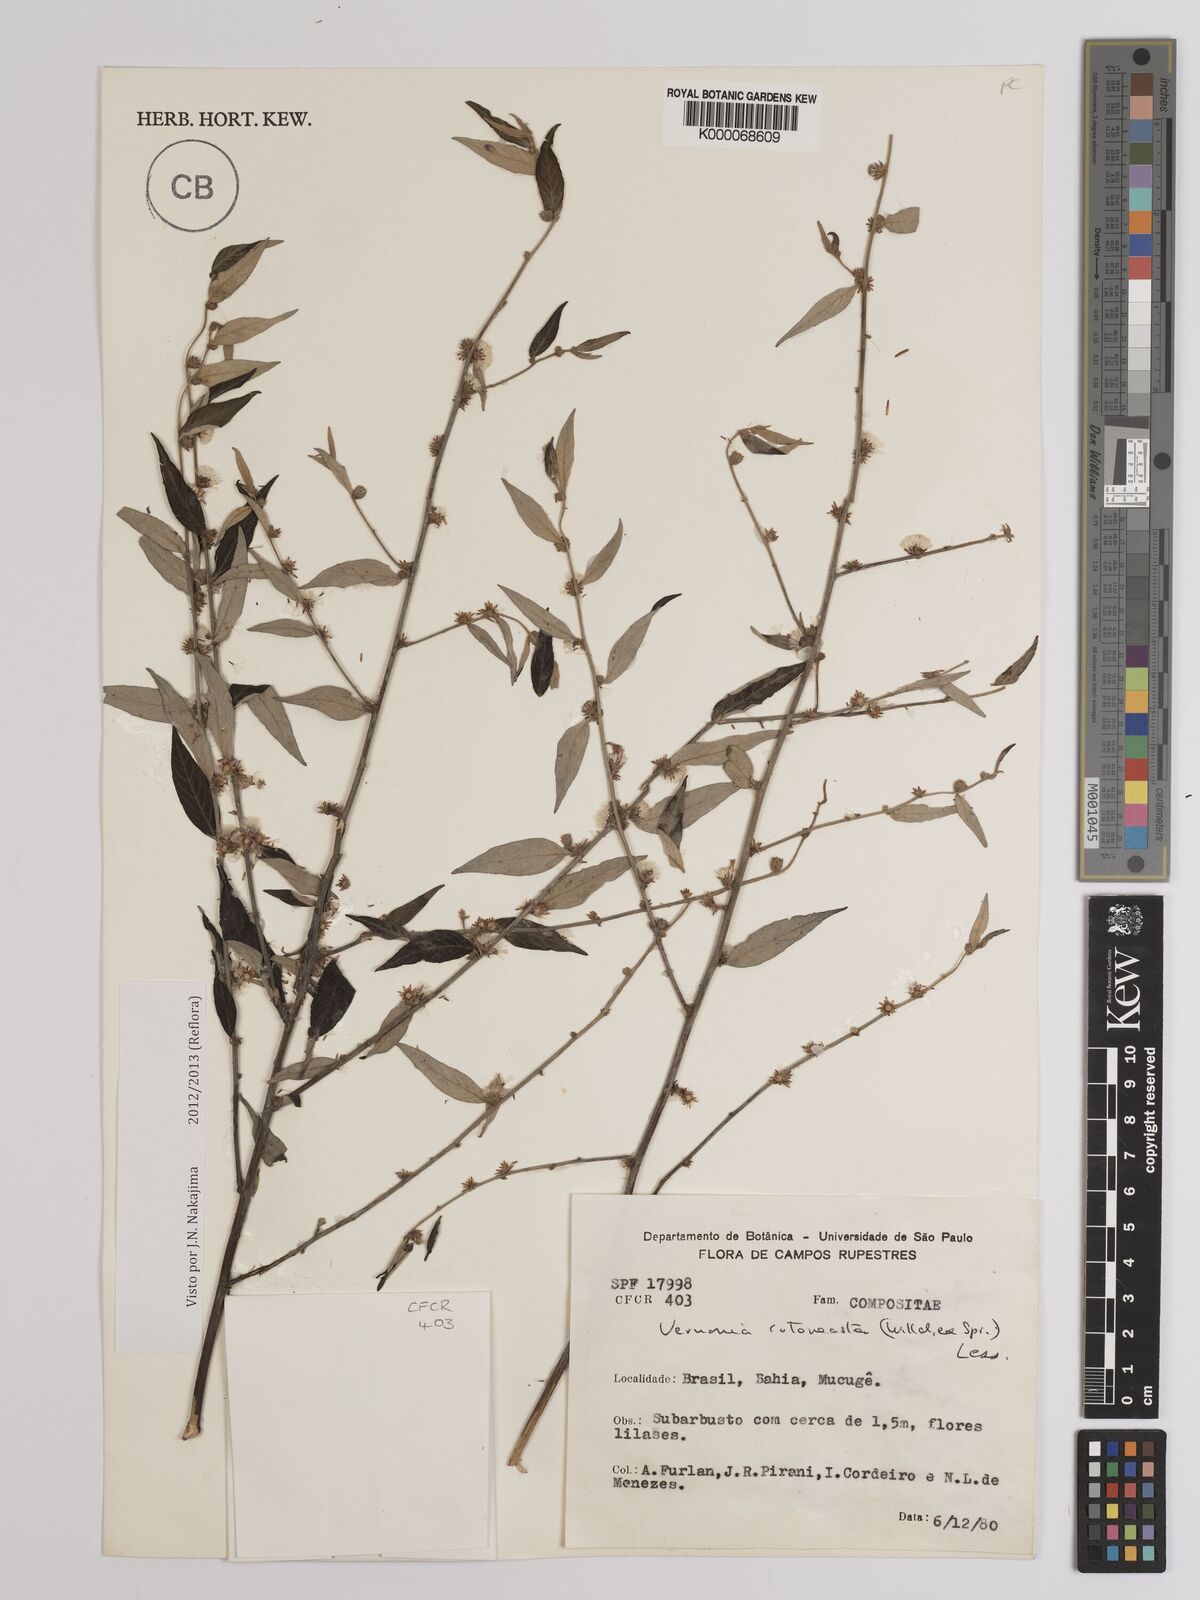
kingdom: Plantae
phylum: Tracheophyta
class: Magnoliopsida
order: Asterales
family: Asteraceae
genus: Lepidaploa
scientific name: Lepidaploa cotoneaster
